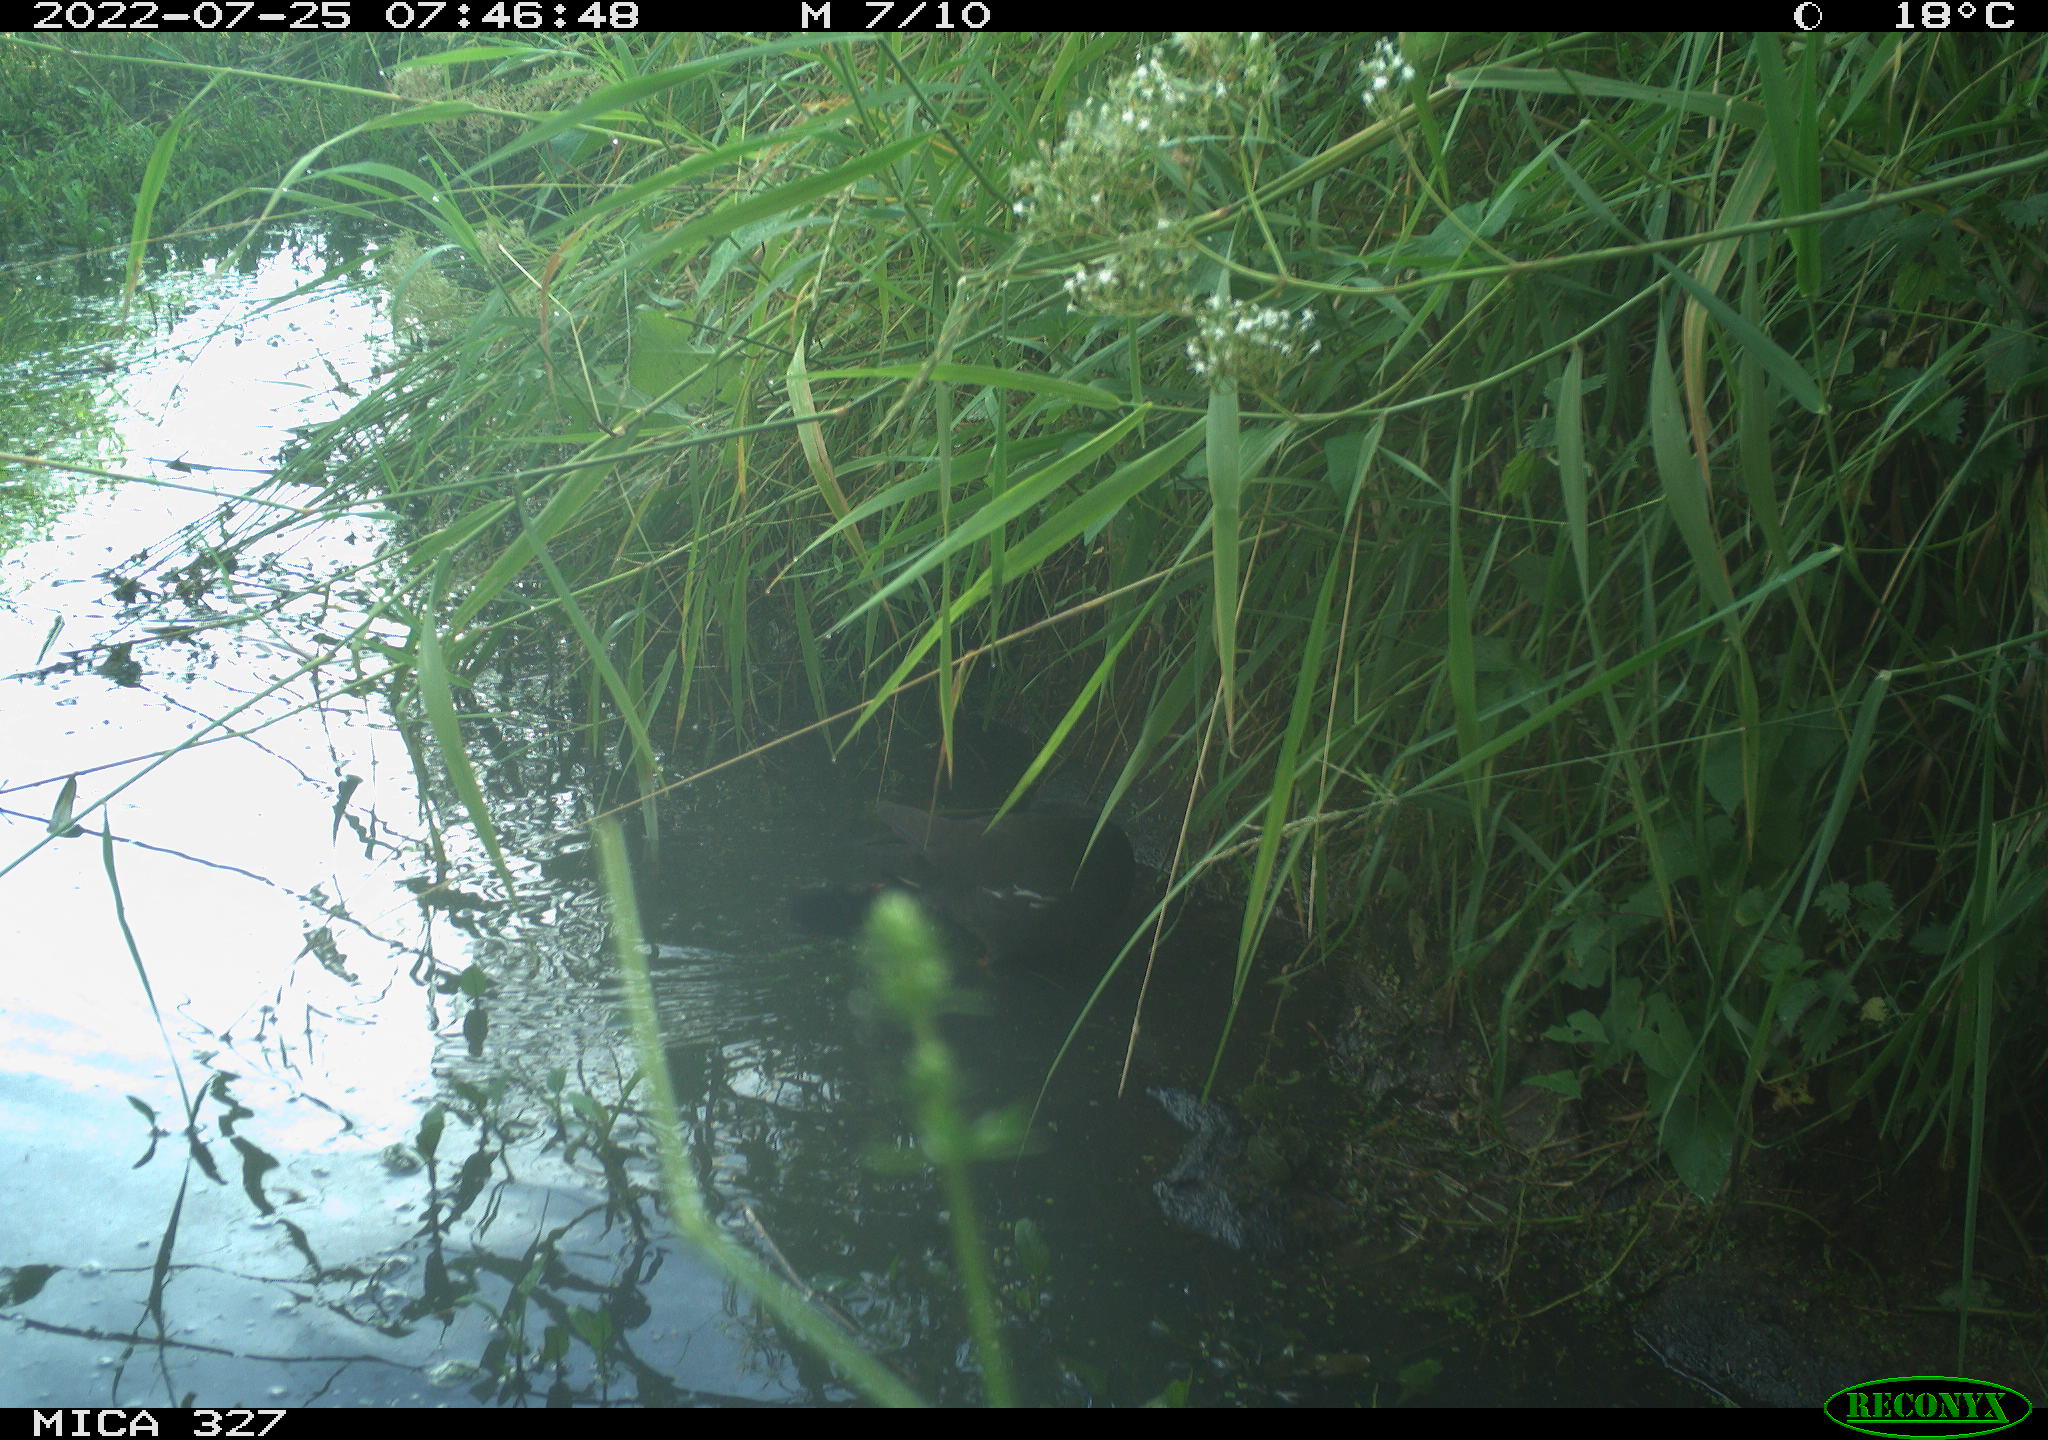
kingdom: Animalia
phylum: Chordata
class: Aves
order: Gruiformes
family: Rallidae
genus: Gallinula
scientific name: Gallinula chloropus
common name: Common moorhen
